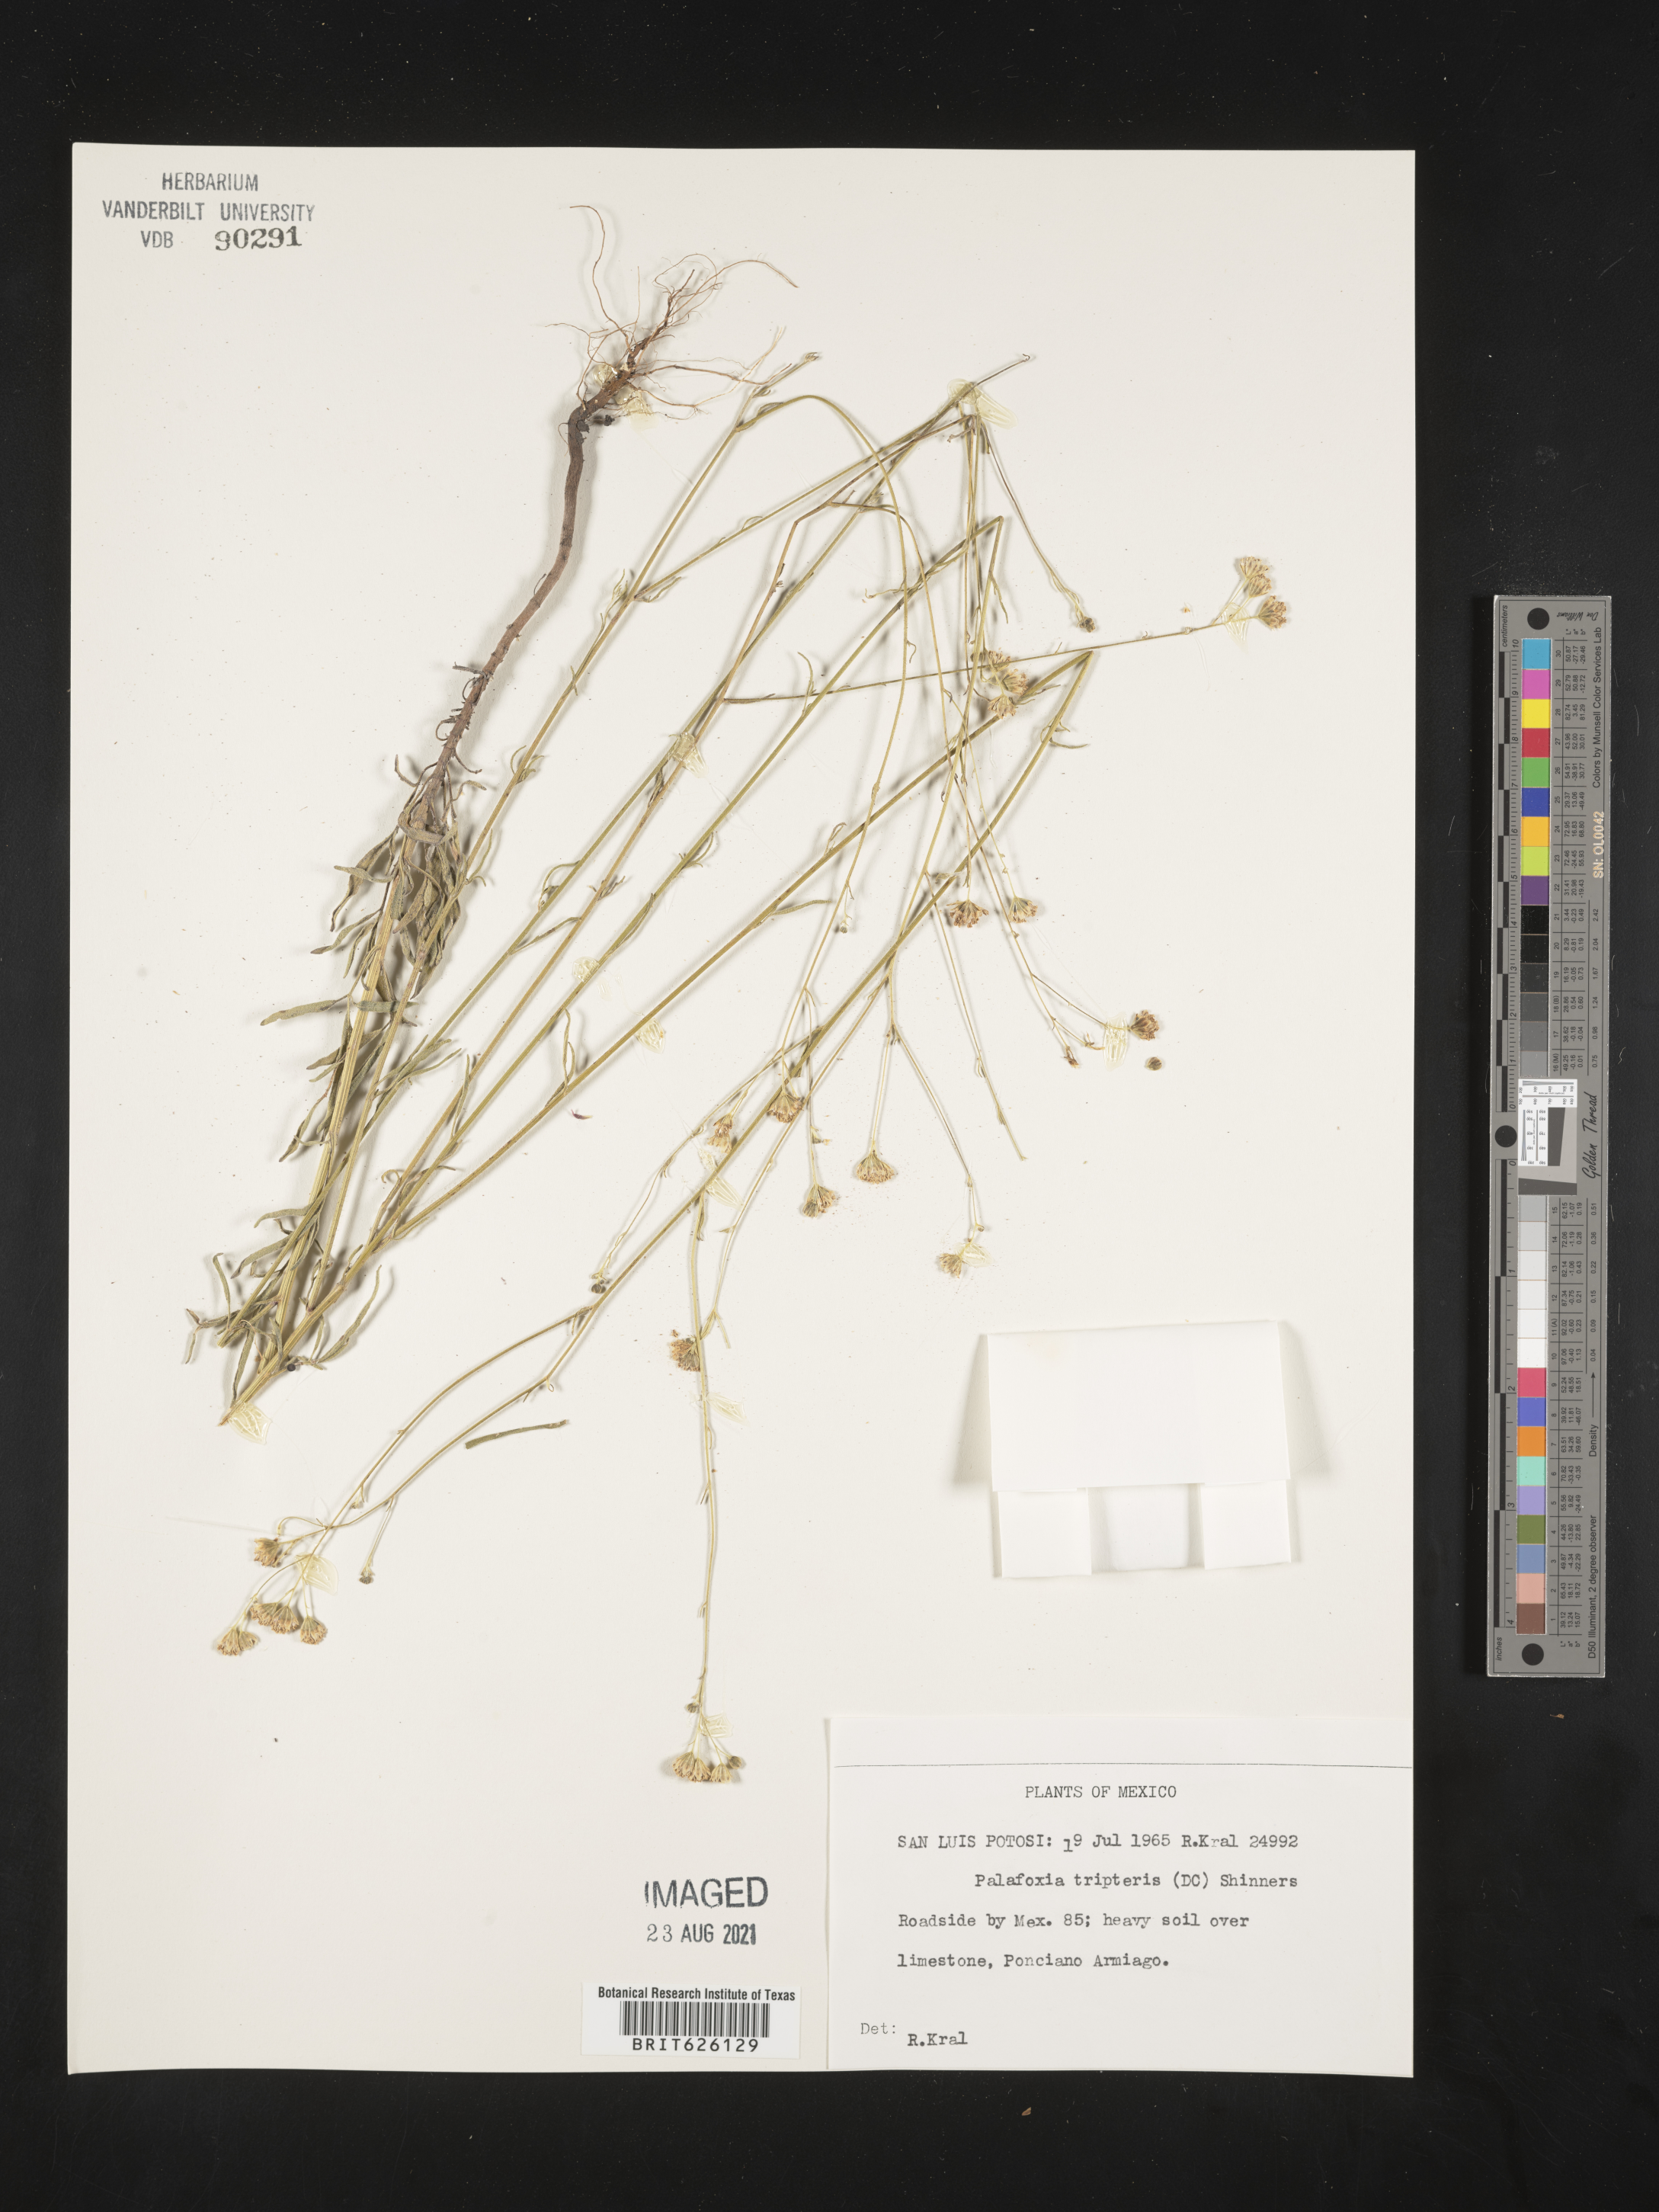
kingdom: Plantae
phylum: Tracheophyta
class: Magnoliopsida
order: Asterales
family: Asteraceae
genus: Palafoxia
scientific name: Palafoxia
